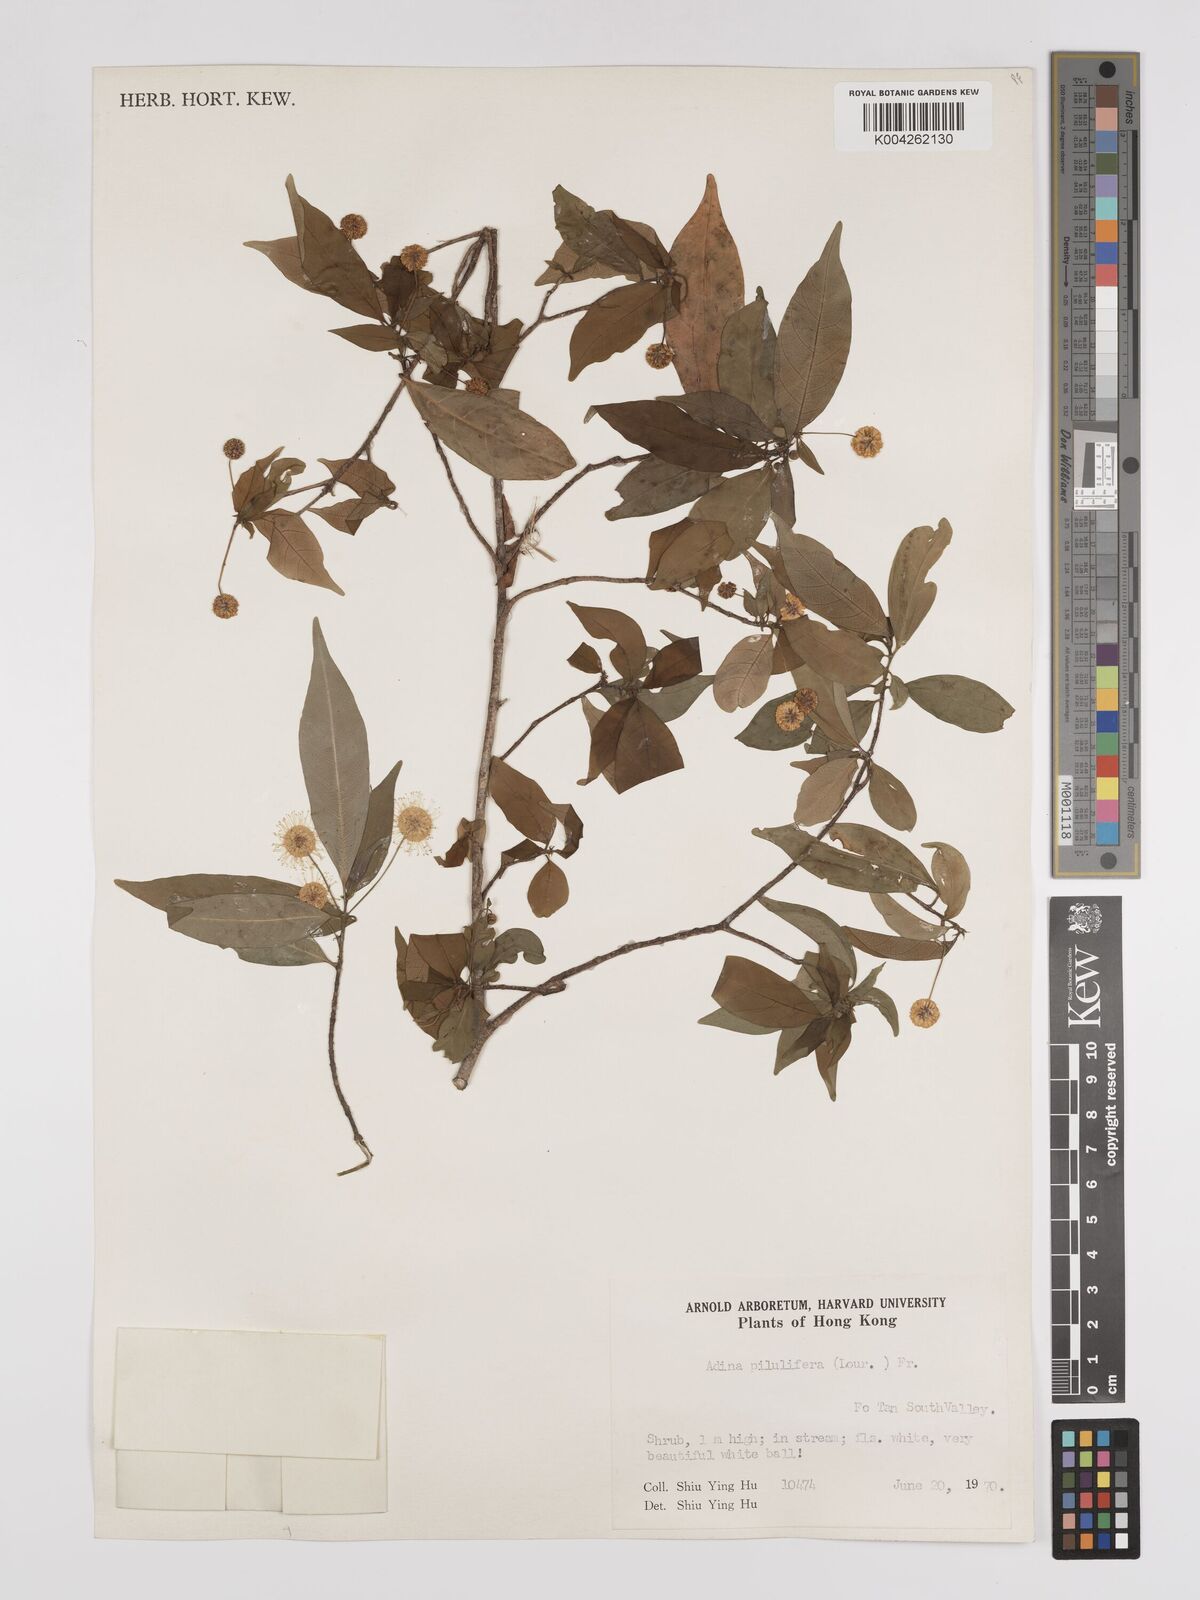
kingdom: Plantae
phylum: Tracheophyta
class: Magnoliopsida
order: Gentianales
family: Rubiaceae
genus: Adina
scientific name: Adina pilulifera
